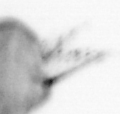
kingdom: Animalia
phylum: Annelida
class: Polychaeta
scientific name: Polychaeta
